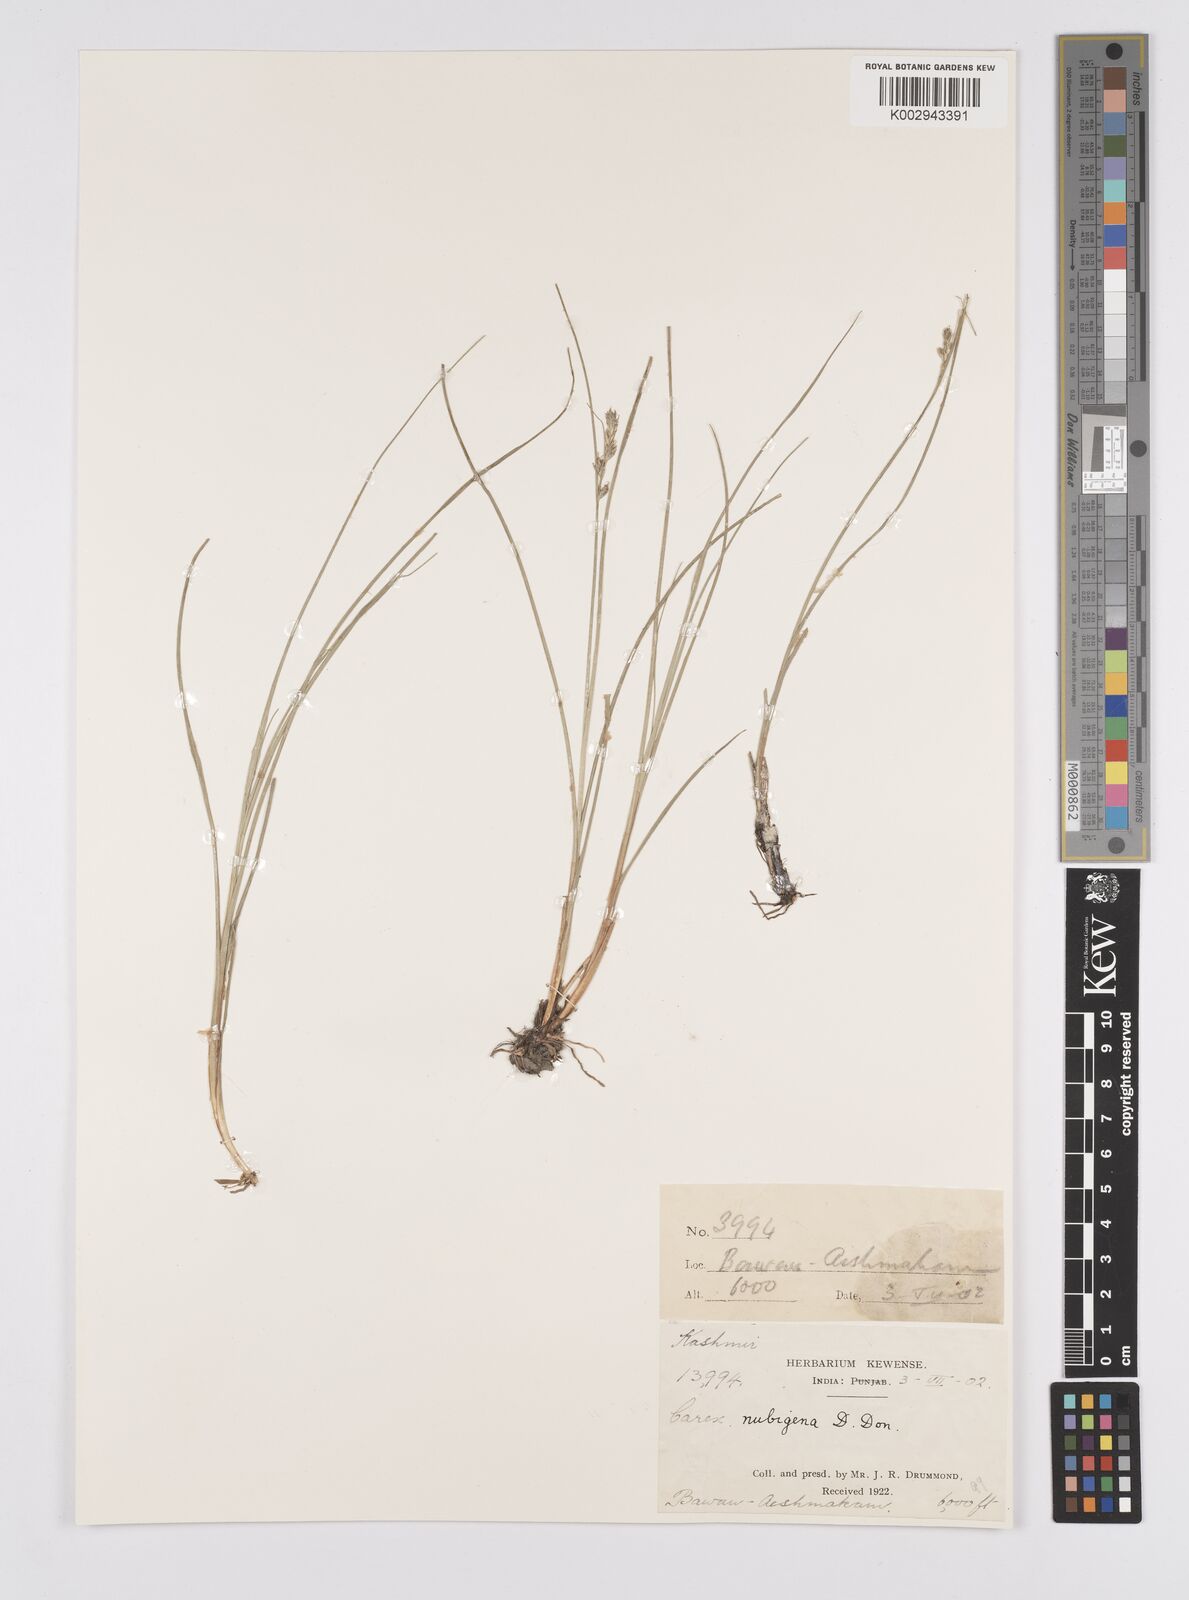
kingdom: Plantae
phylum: Tracheophyta
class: Liliopsida
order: Poales
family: Cyperaceae
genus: Carex
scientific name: Carex nubigena
